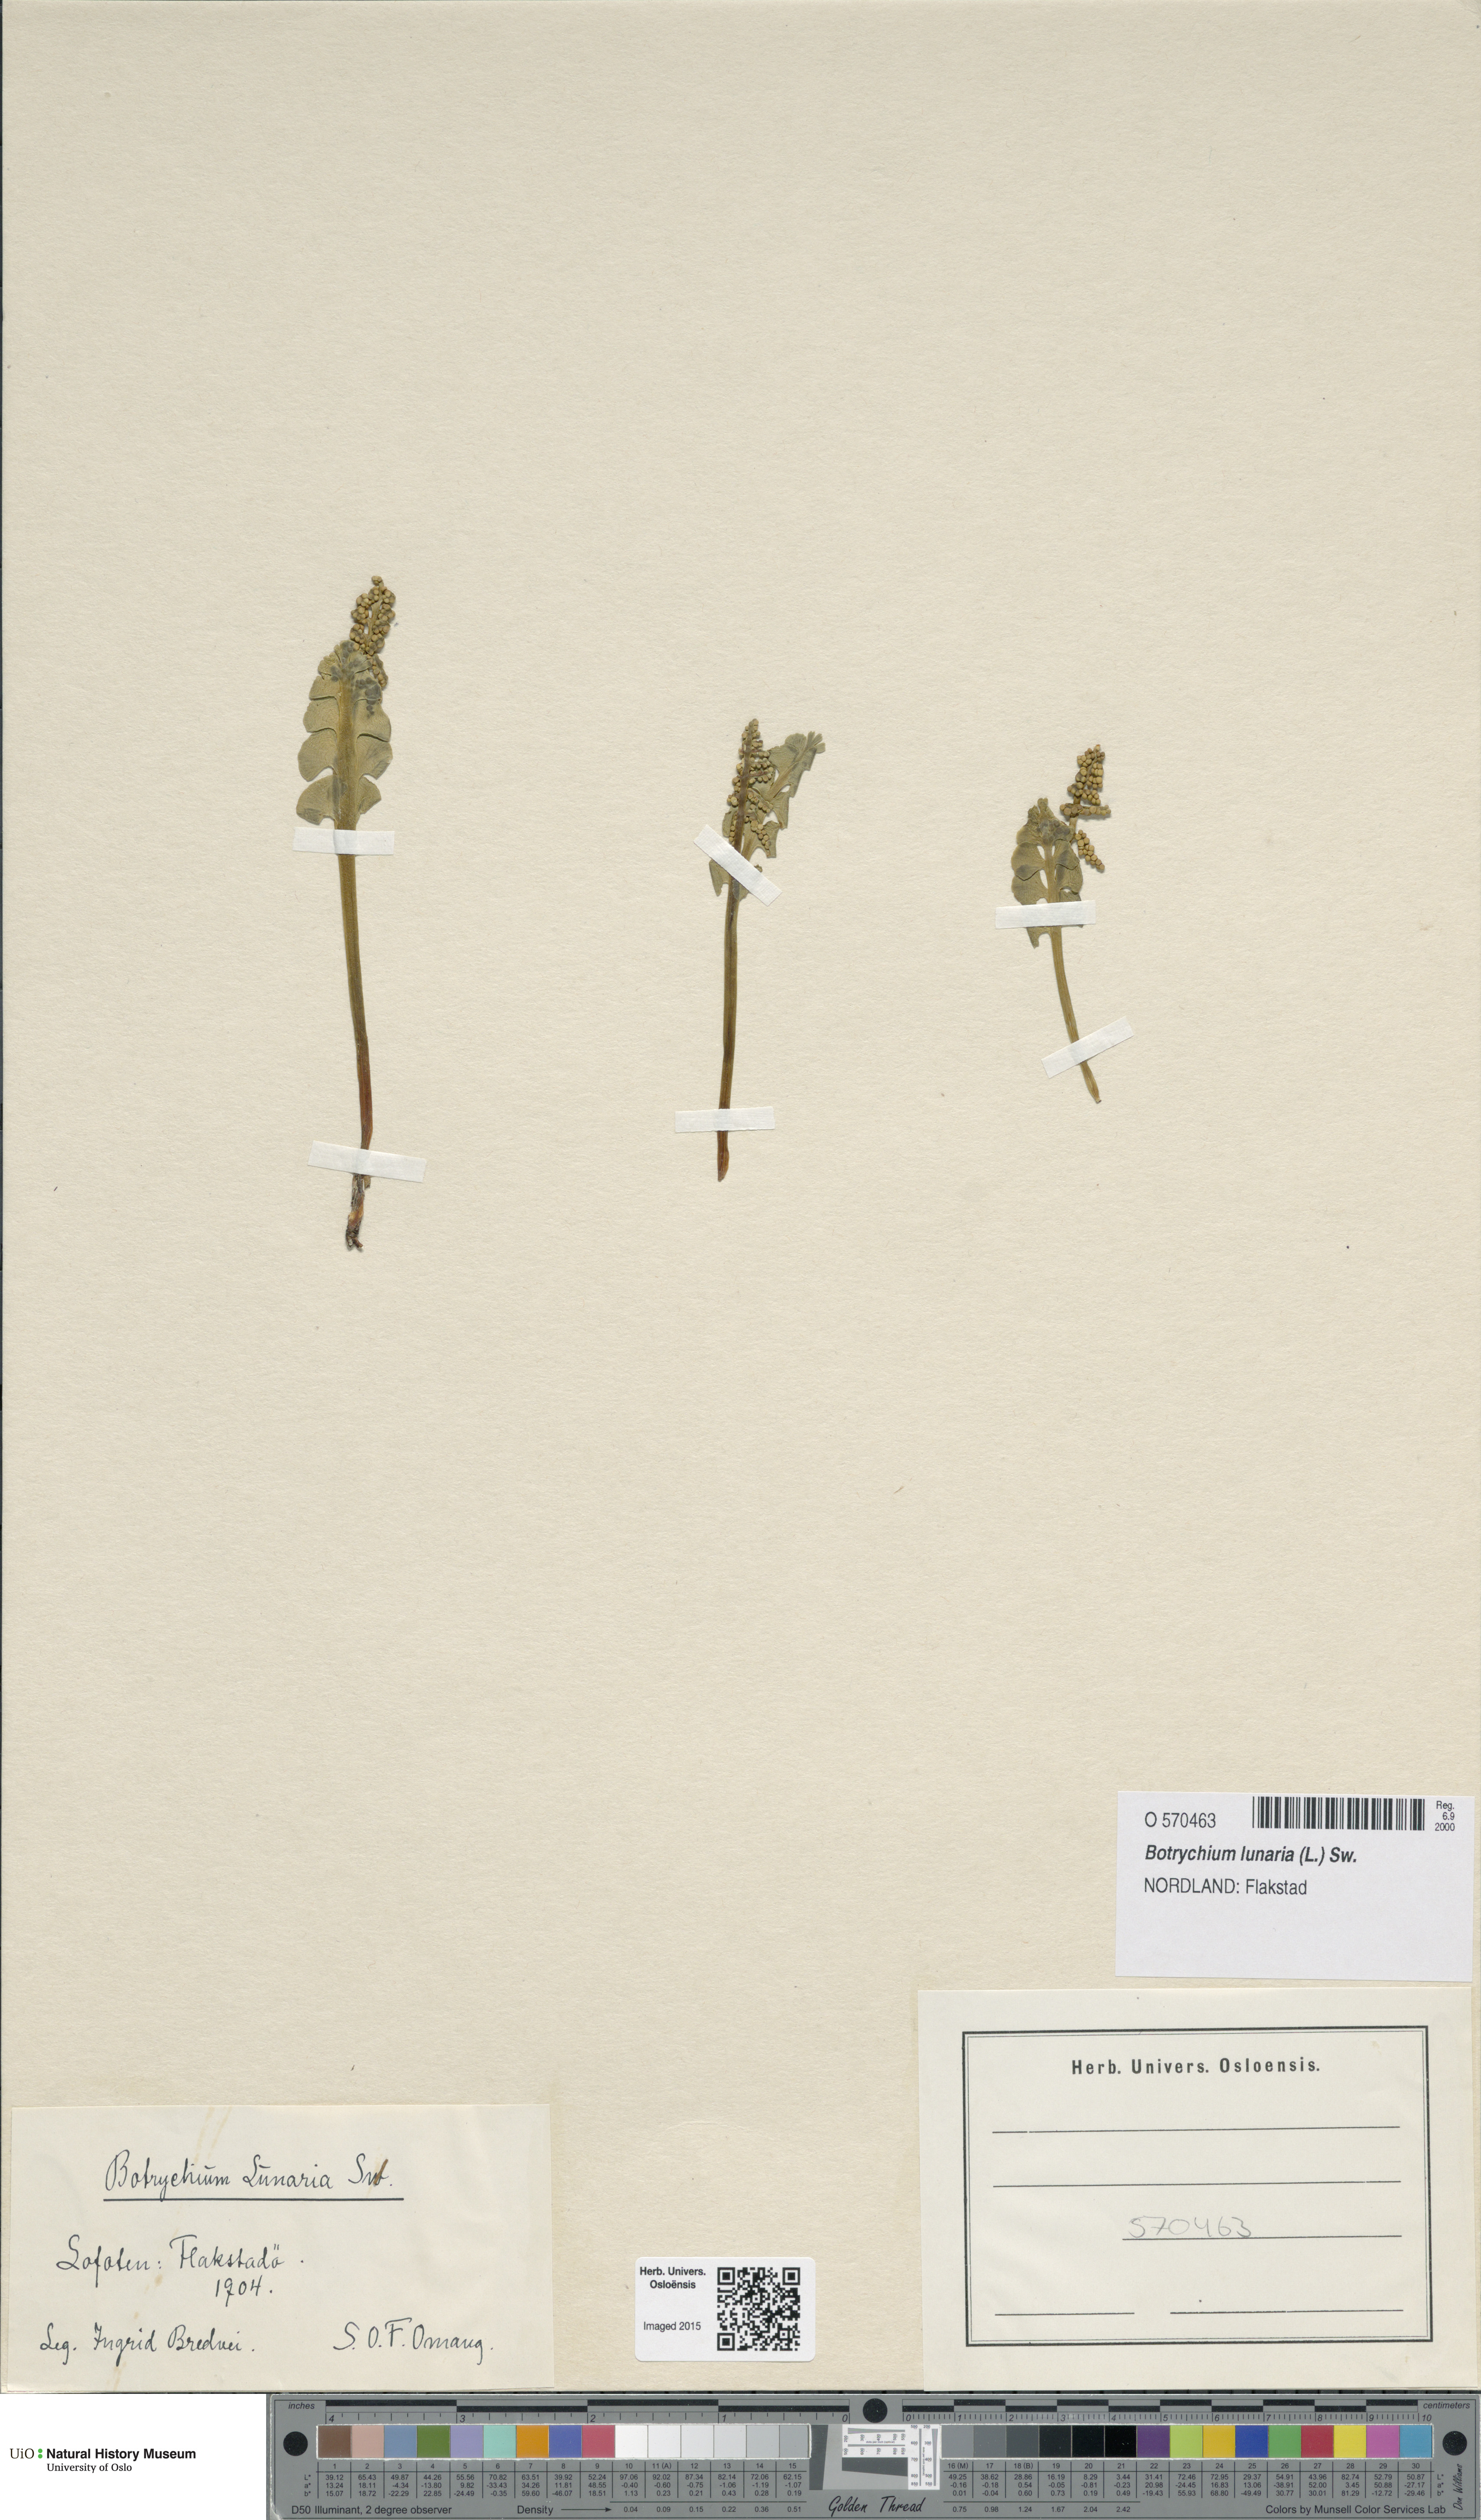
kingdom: Plantae
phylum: Tracheophyta
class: Polypodiopsida
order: Ophioglossales
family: Ophioglossaceae
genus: Botrychium
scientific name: Botrychium lunaria
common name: Moonwort
